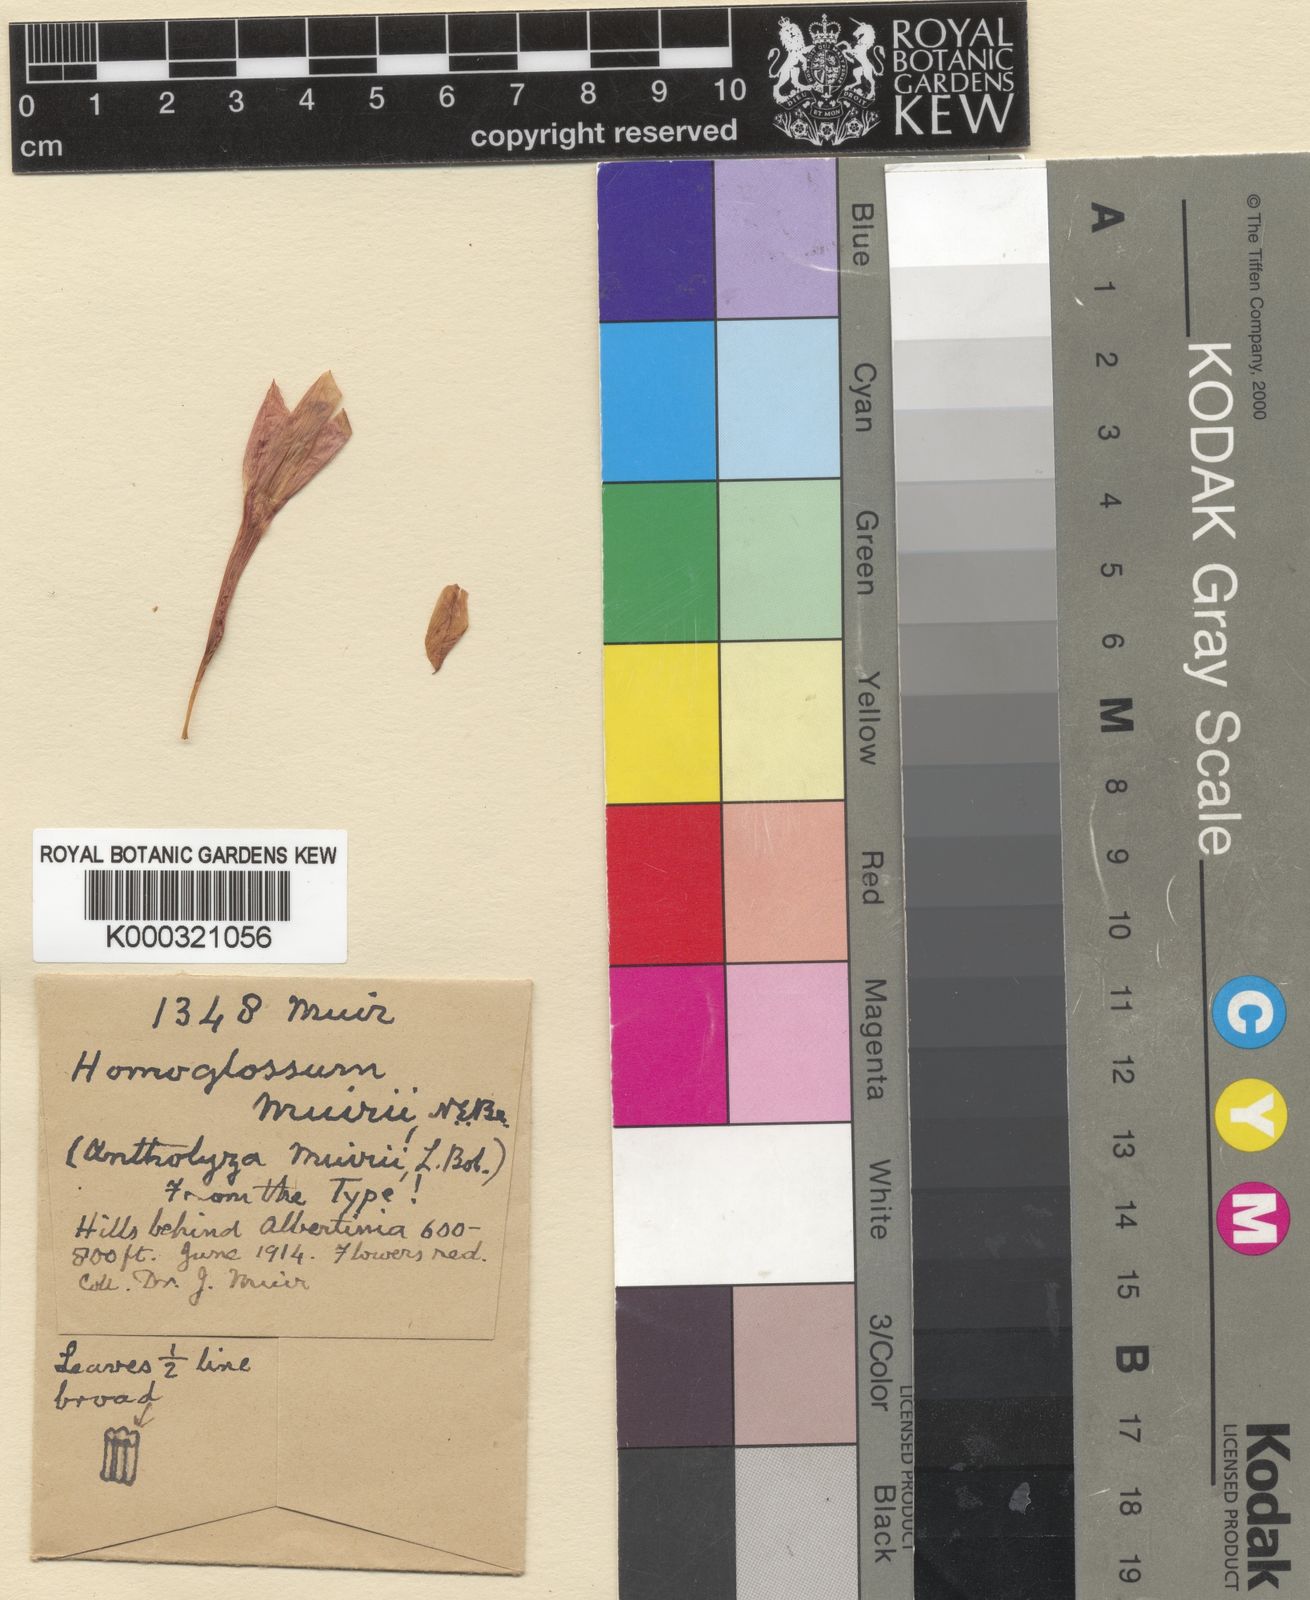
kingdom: Plantae
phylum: Tracheophyta
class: Liliopsida
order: Asparagales
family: Iridaceae
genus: Gladiolus
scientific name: Gladiolus involutus
